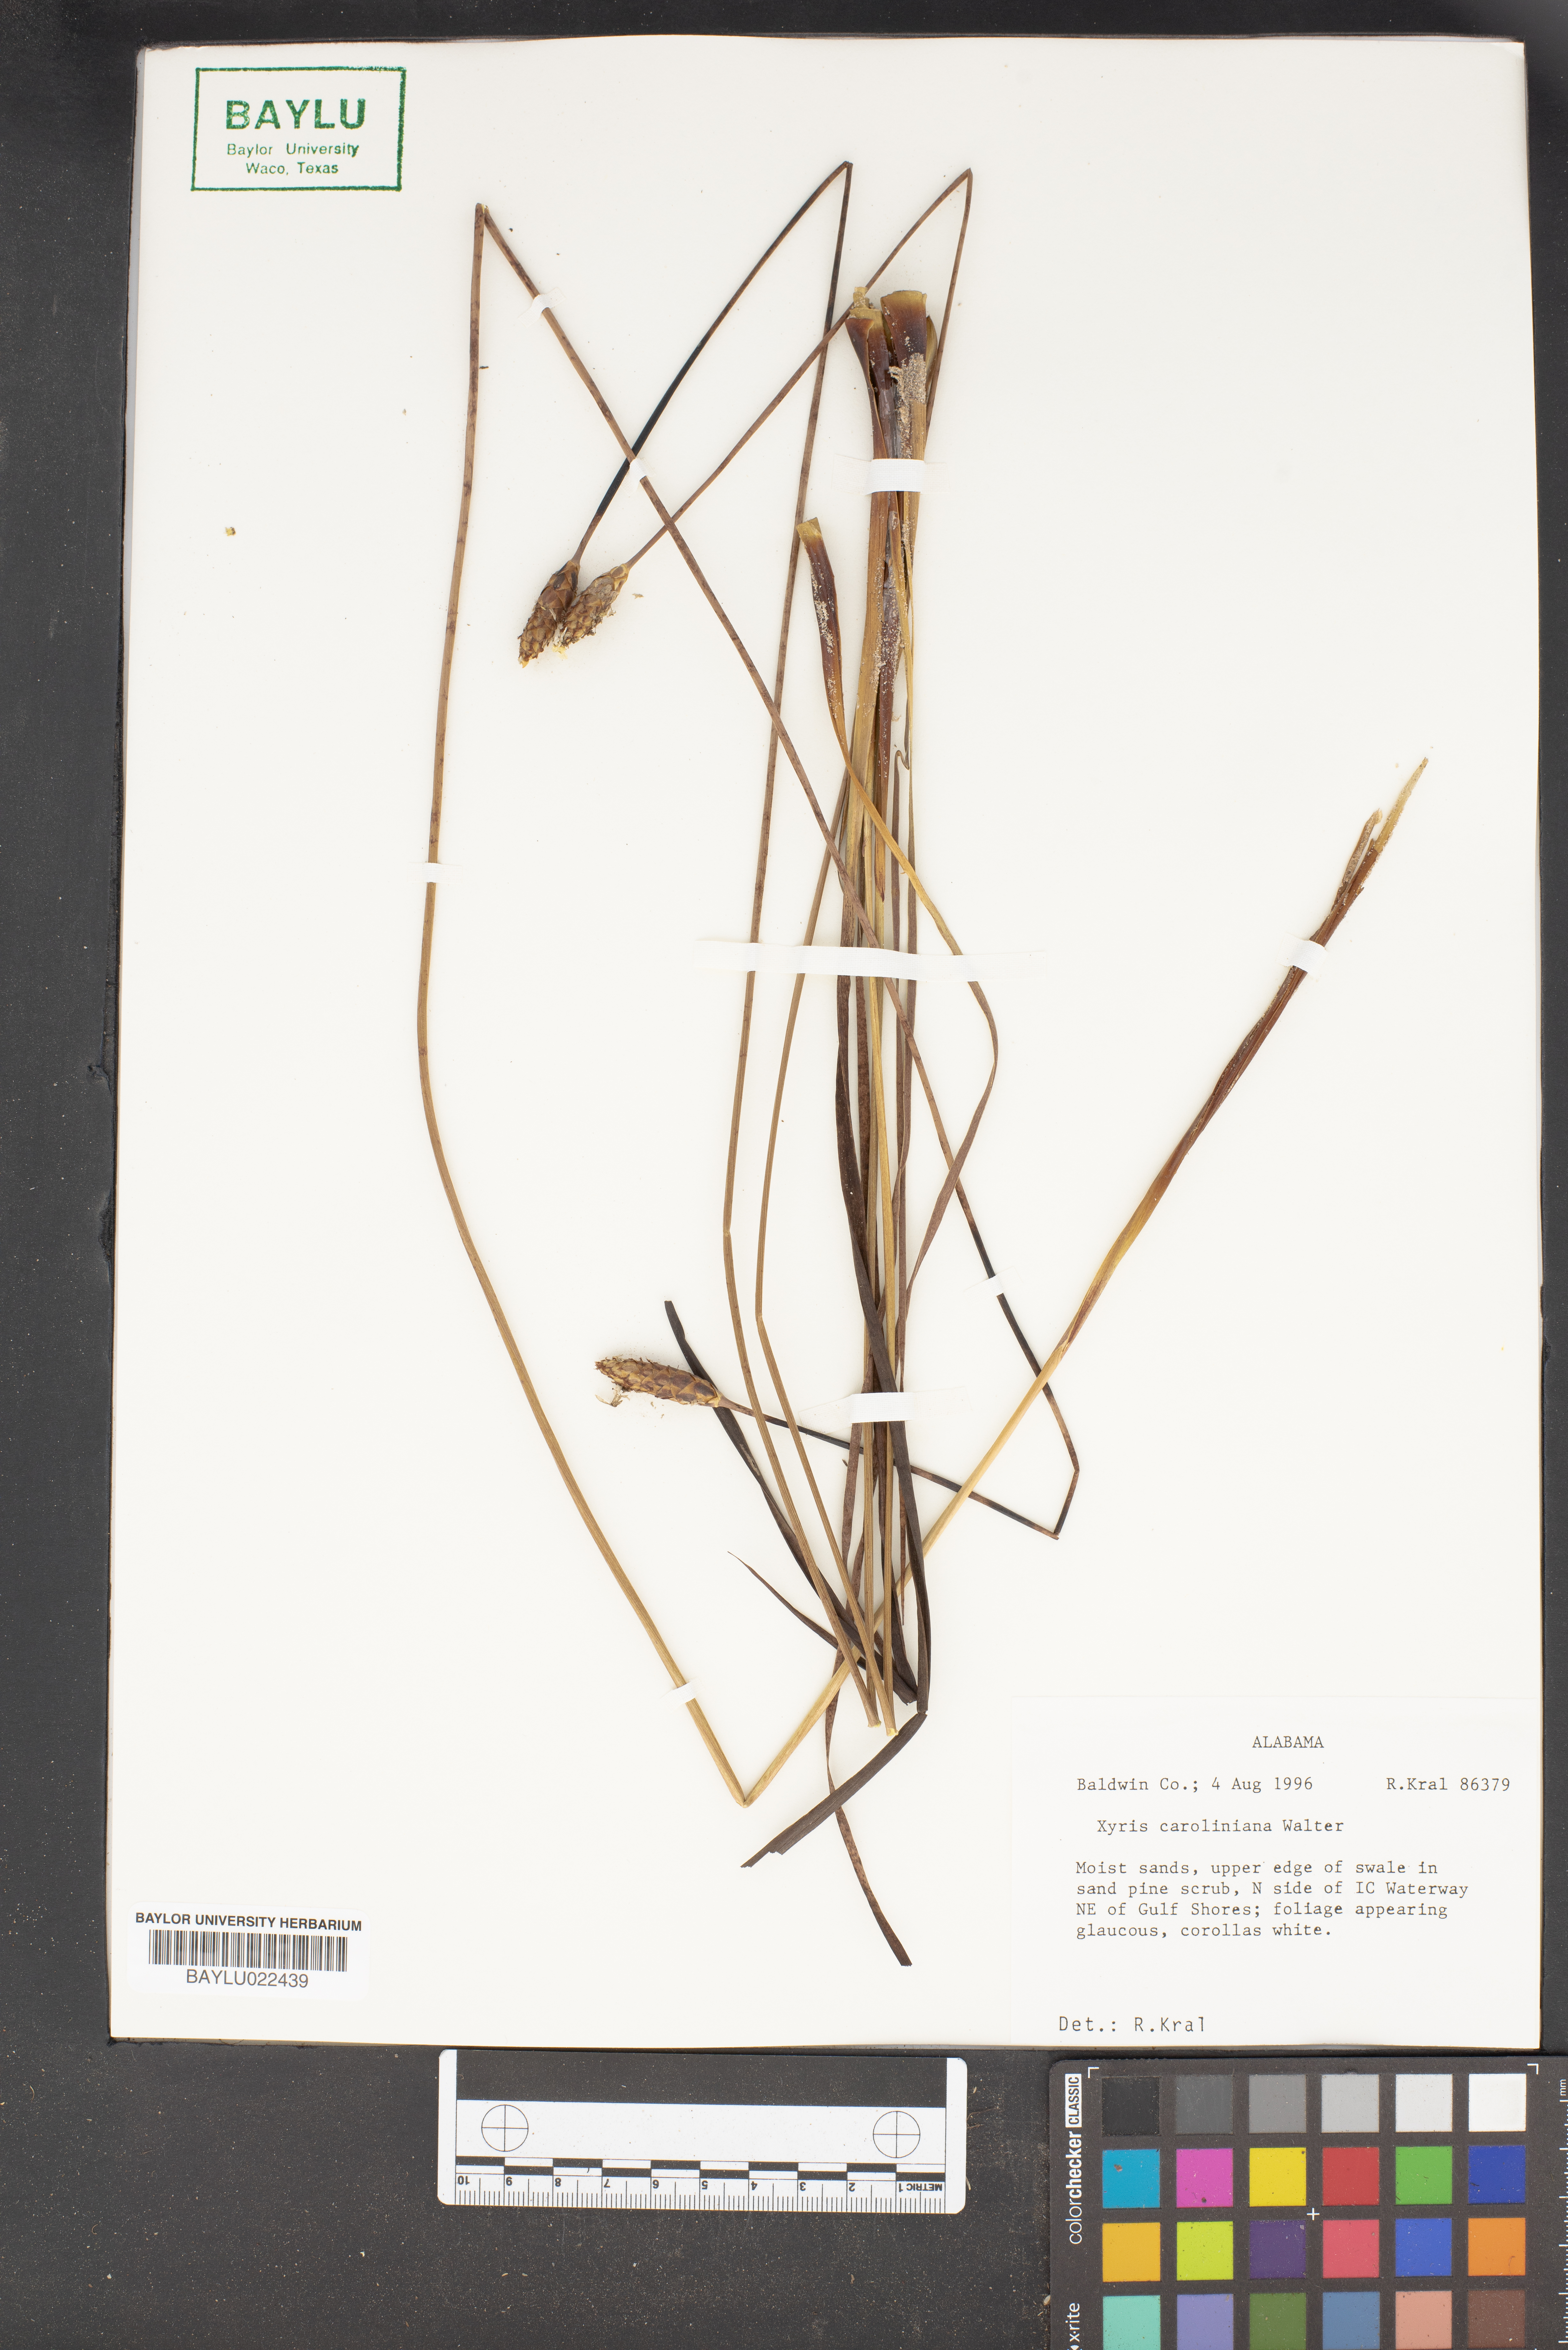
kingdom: Plantae
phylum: Tracheophyta
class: Liliopsida
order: Poales
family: Xyridaceae
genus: Xyris
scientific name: Xyris caroliniana
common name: Carolina yellow-eyed-grass
